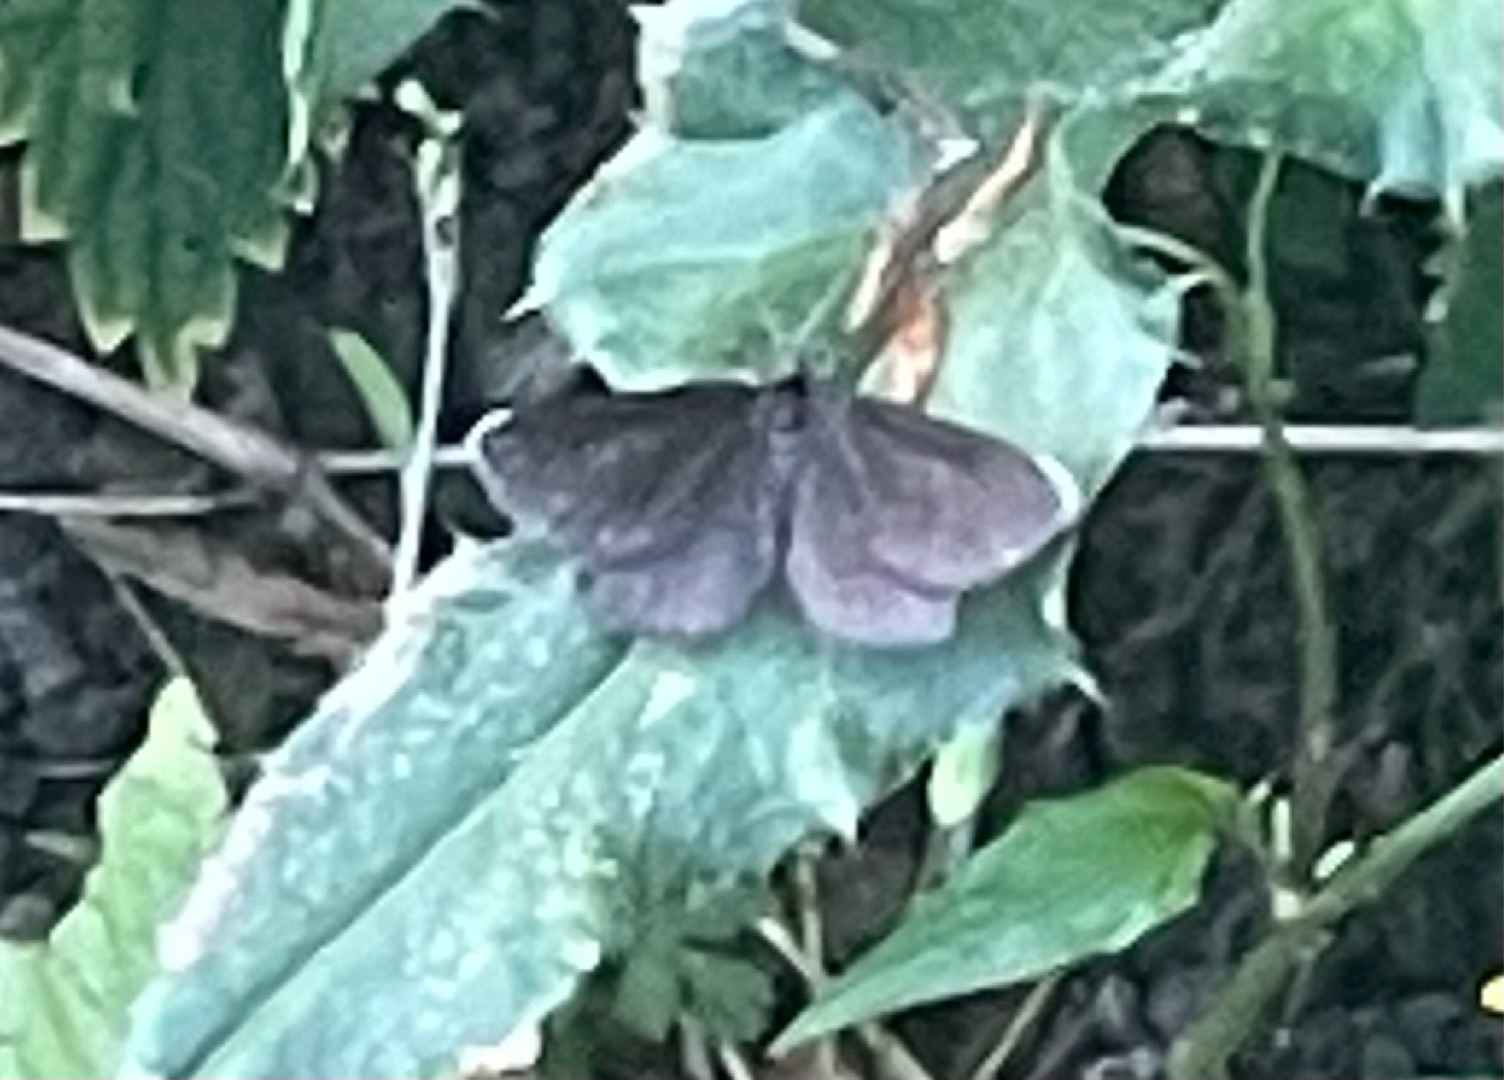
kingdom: Animalia
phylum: Arthropoda
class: Insecta
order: Lepidoptera
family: Geometridae
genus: Odezia
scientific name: Odezia atrata
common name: Sort måler
